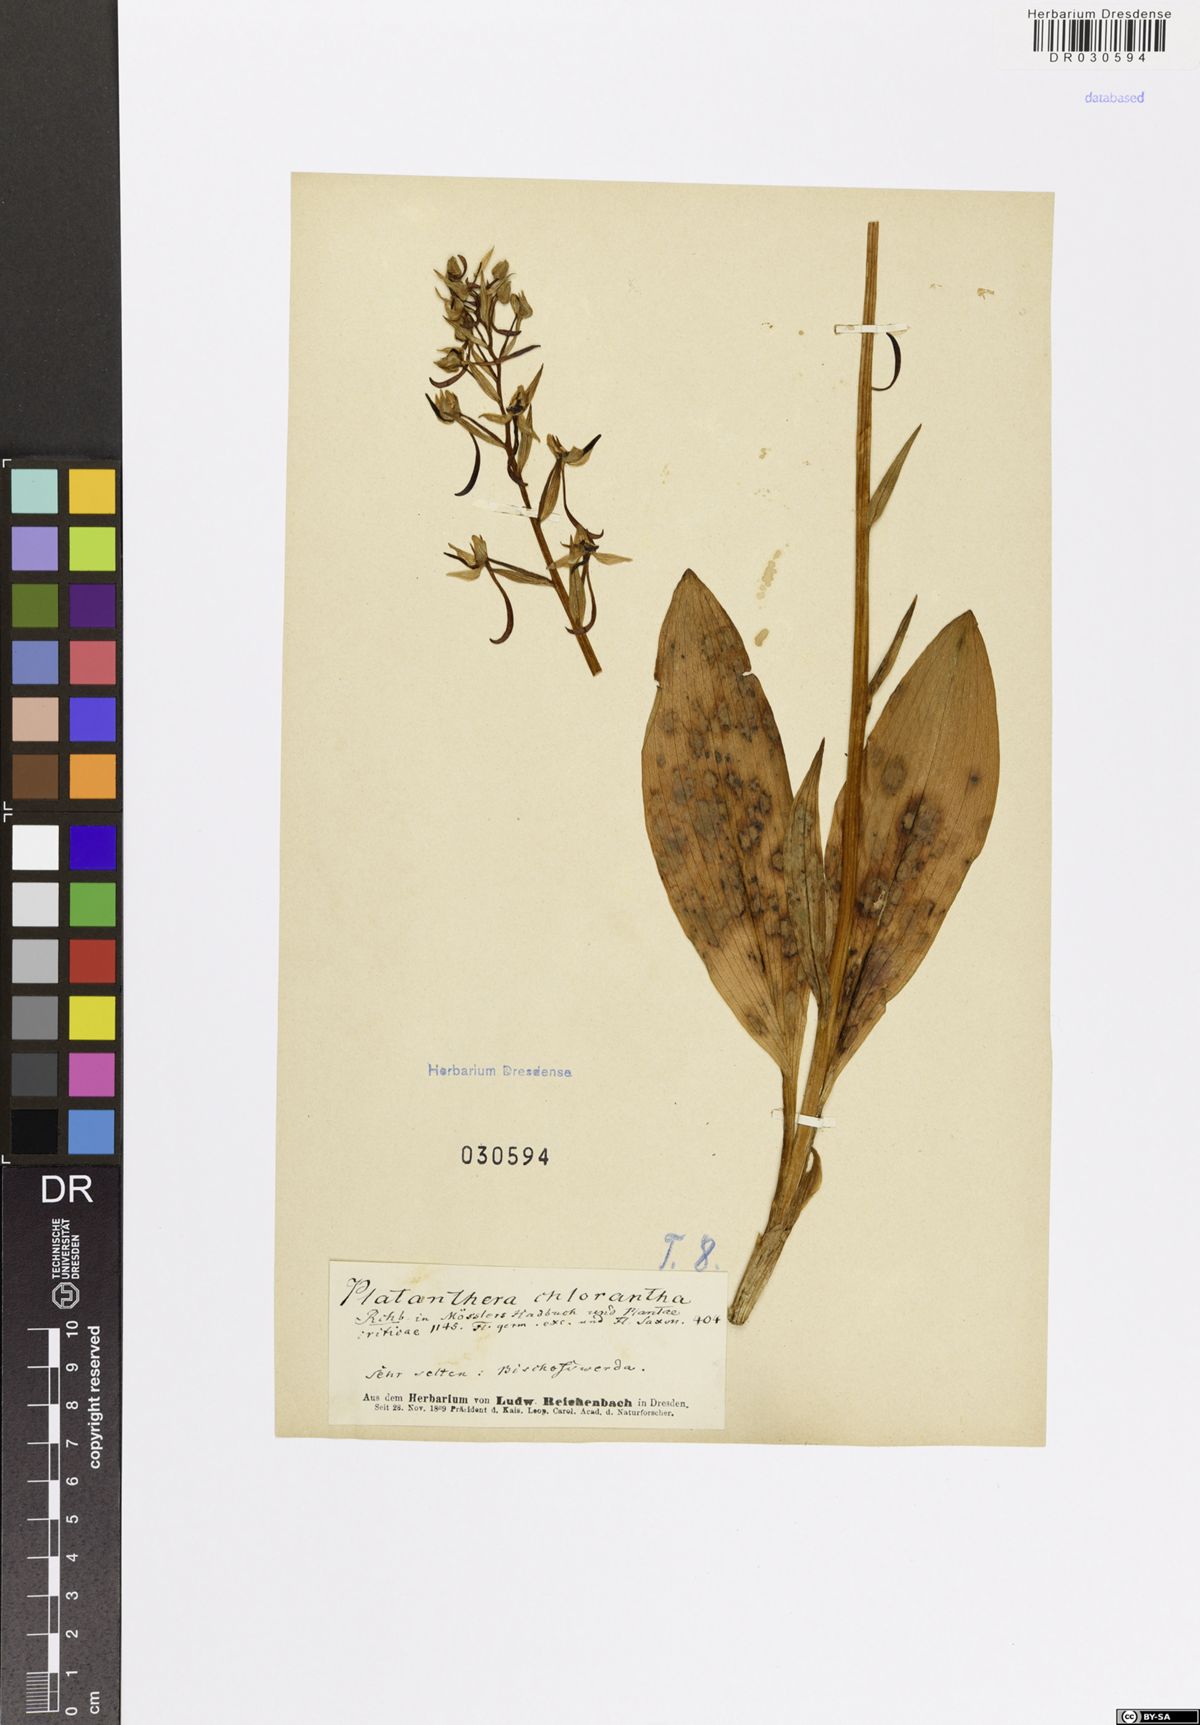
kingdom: Plantae
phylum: Tracheophyta
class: Liliopsida
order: Asparagales
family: Orchidaceae
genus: Platanthera
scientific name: Platanthera chlorantha
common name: Greater butterfly-orchid
